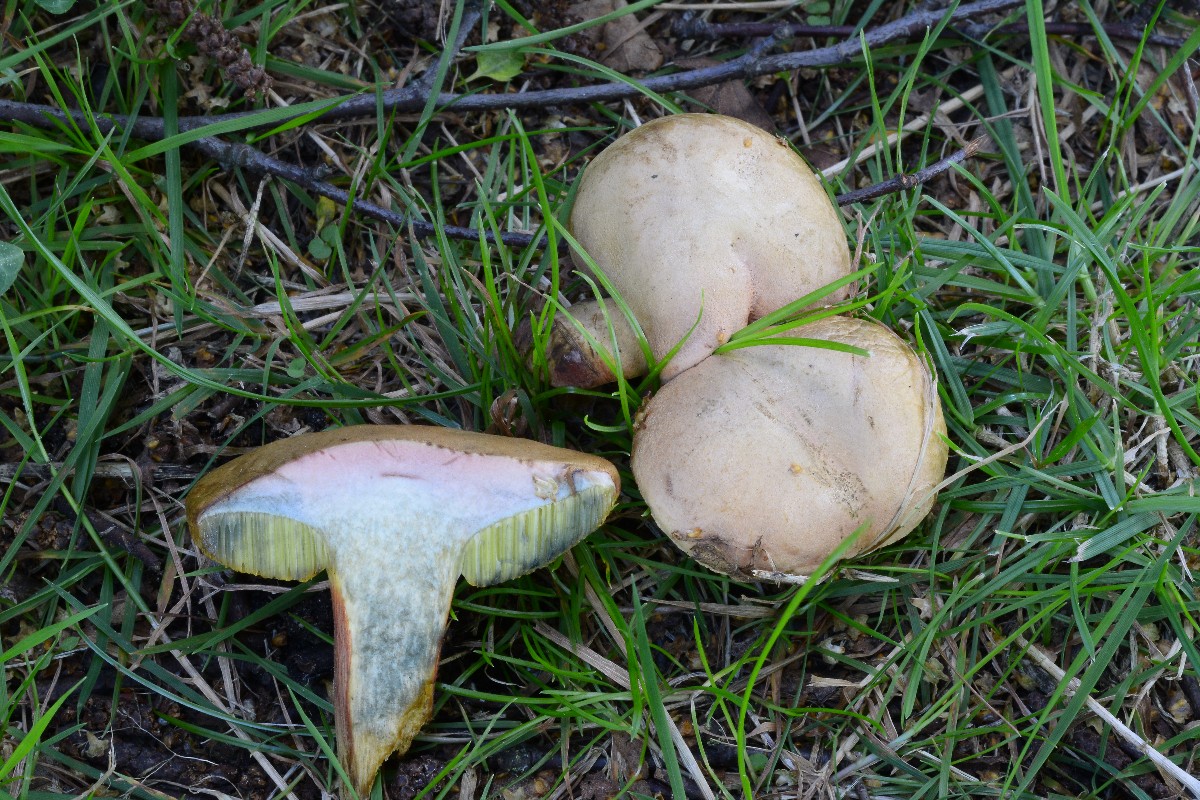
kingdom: Fungi
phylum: Basidiomycota
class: Agaricomycetes
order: Boletales
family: Boletaceae
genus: Hortiboletus
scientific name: Hortiboletus bubalinus
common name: aurora-rørhat
